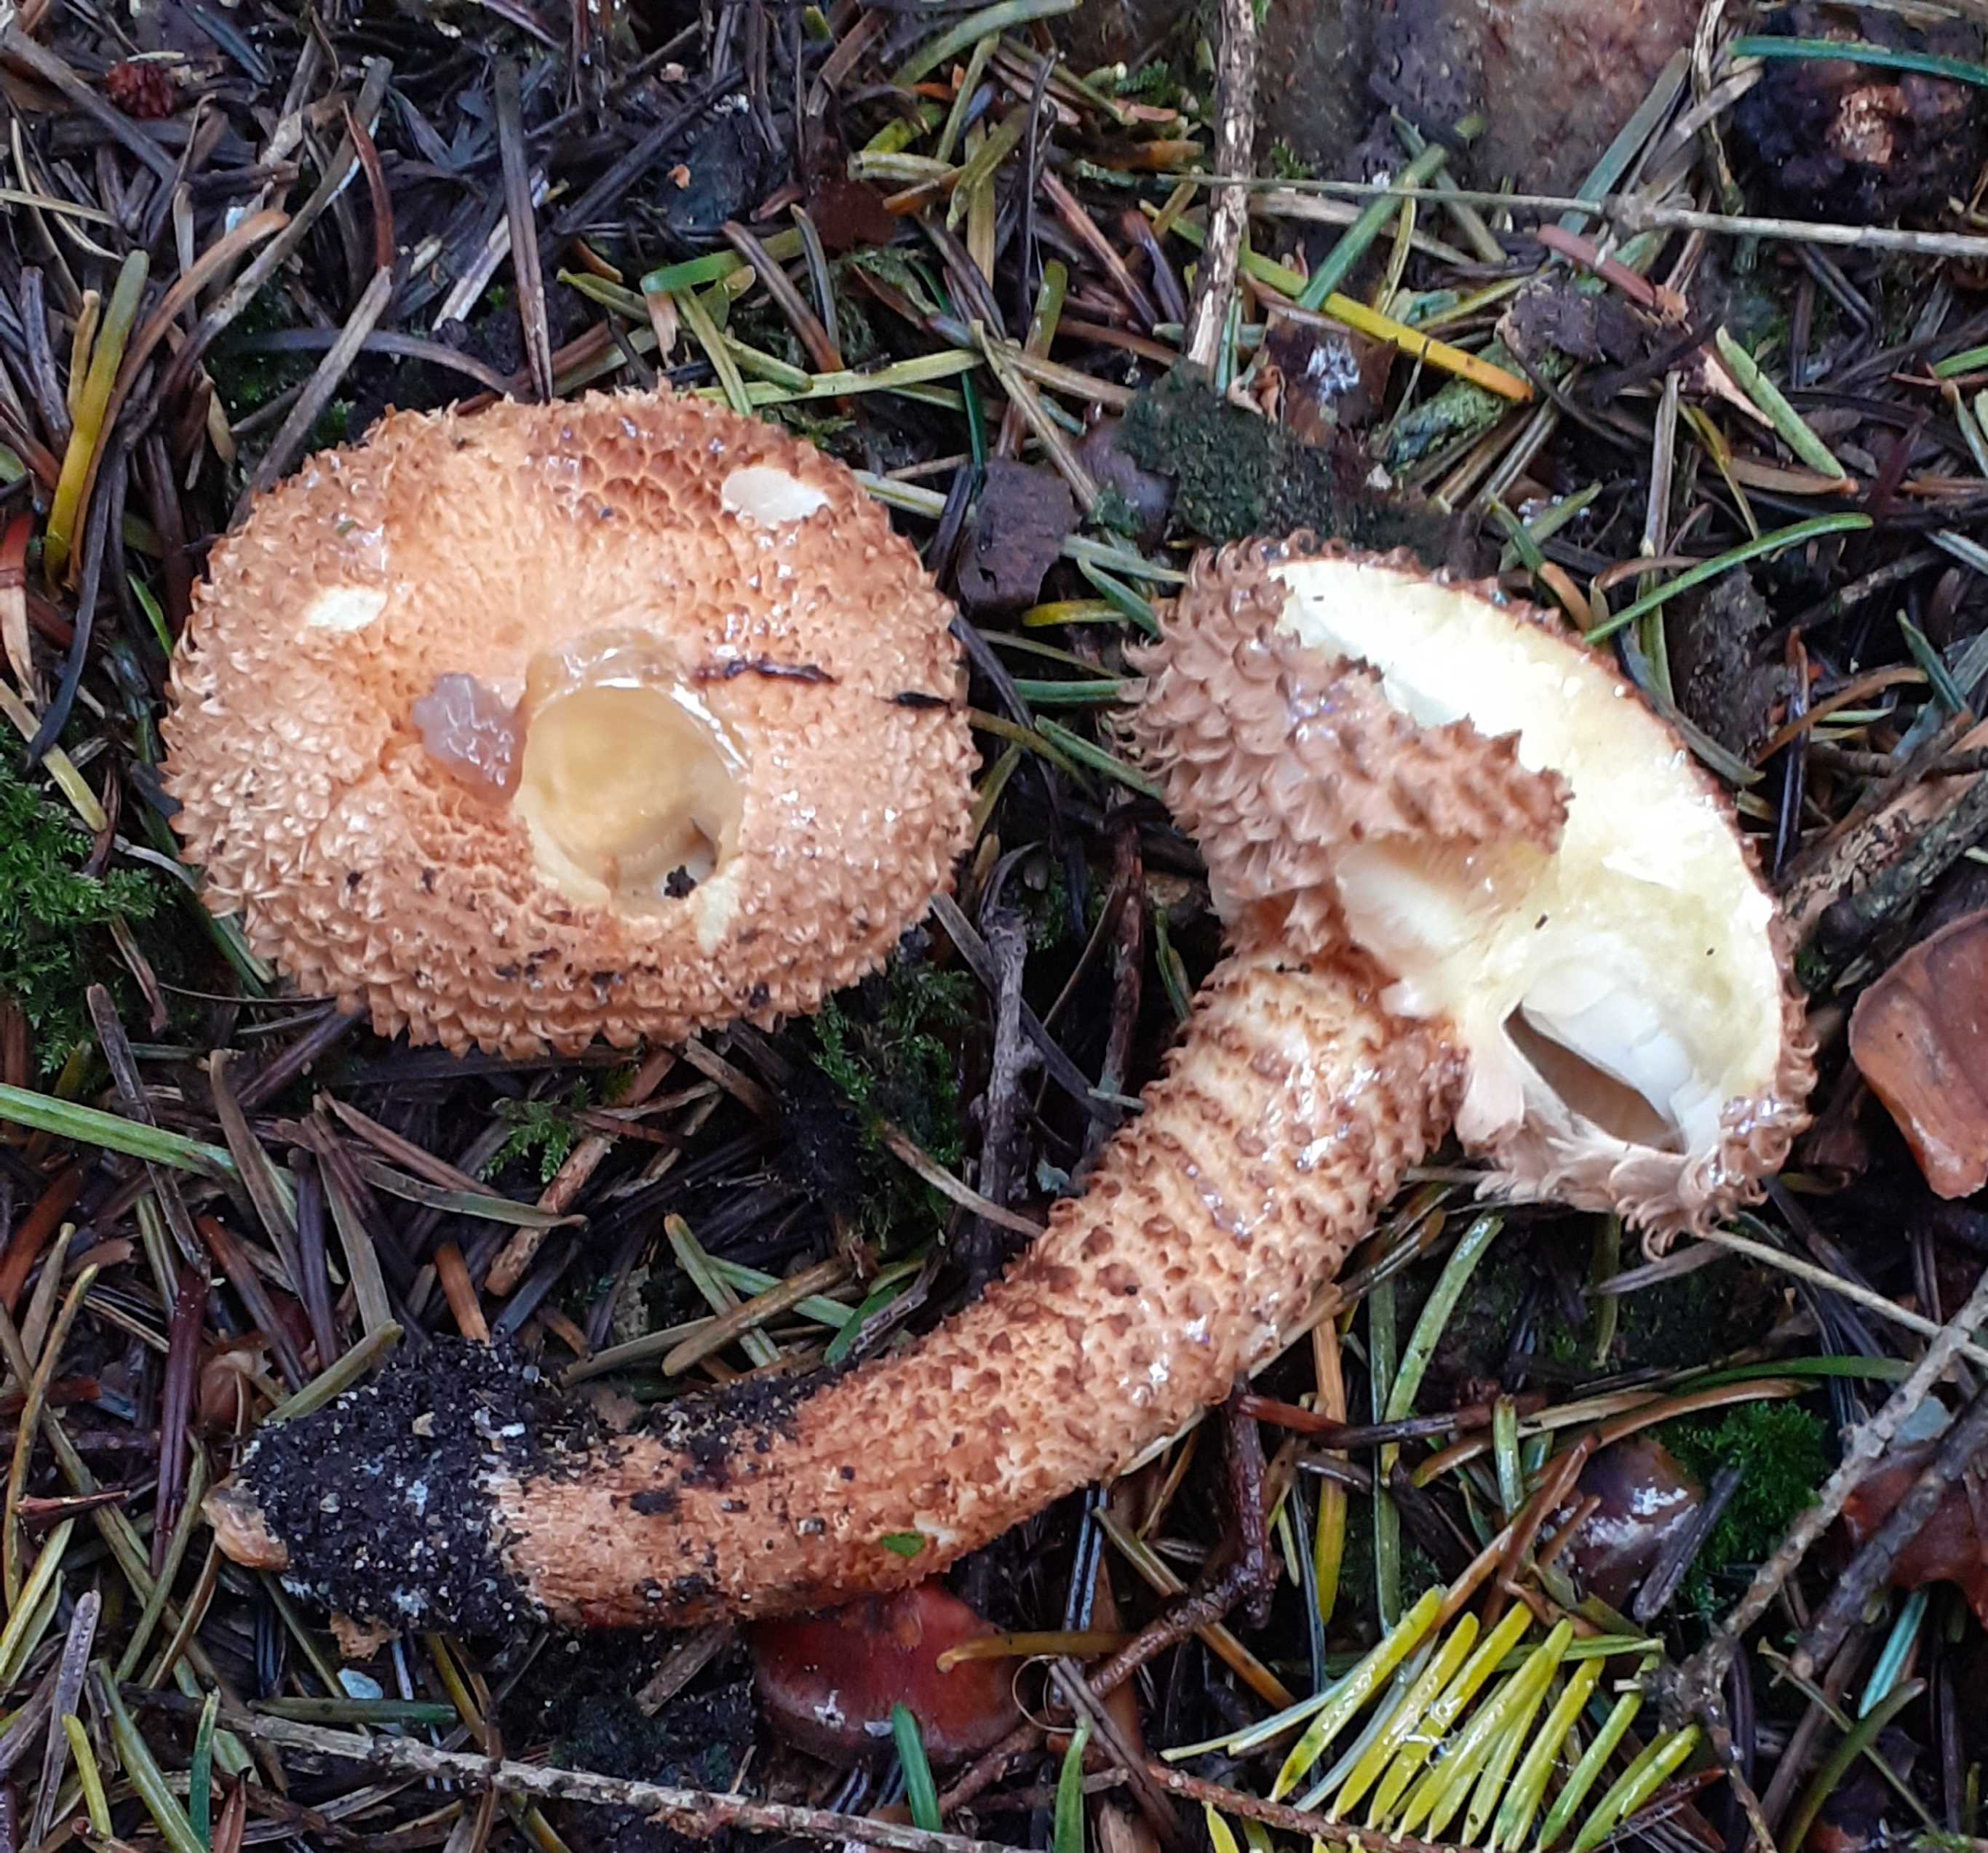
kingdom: Fungi
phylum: Basidiomycota
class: Agaricomycetes
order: Agaricales
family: Strophariaceae
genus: Pholiota
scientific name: Pholiota squarrosa
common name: krumskællet skælhat
